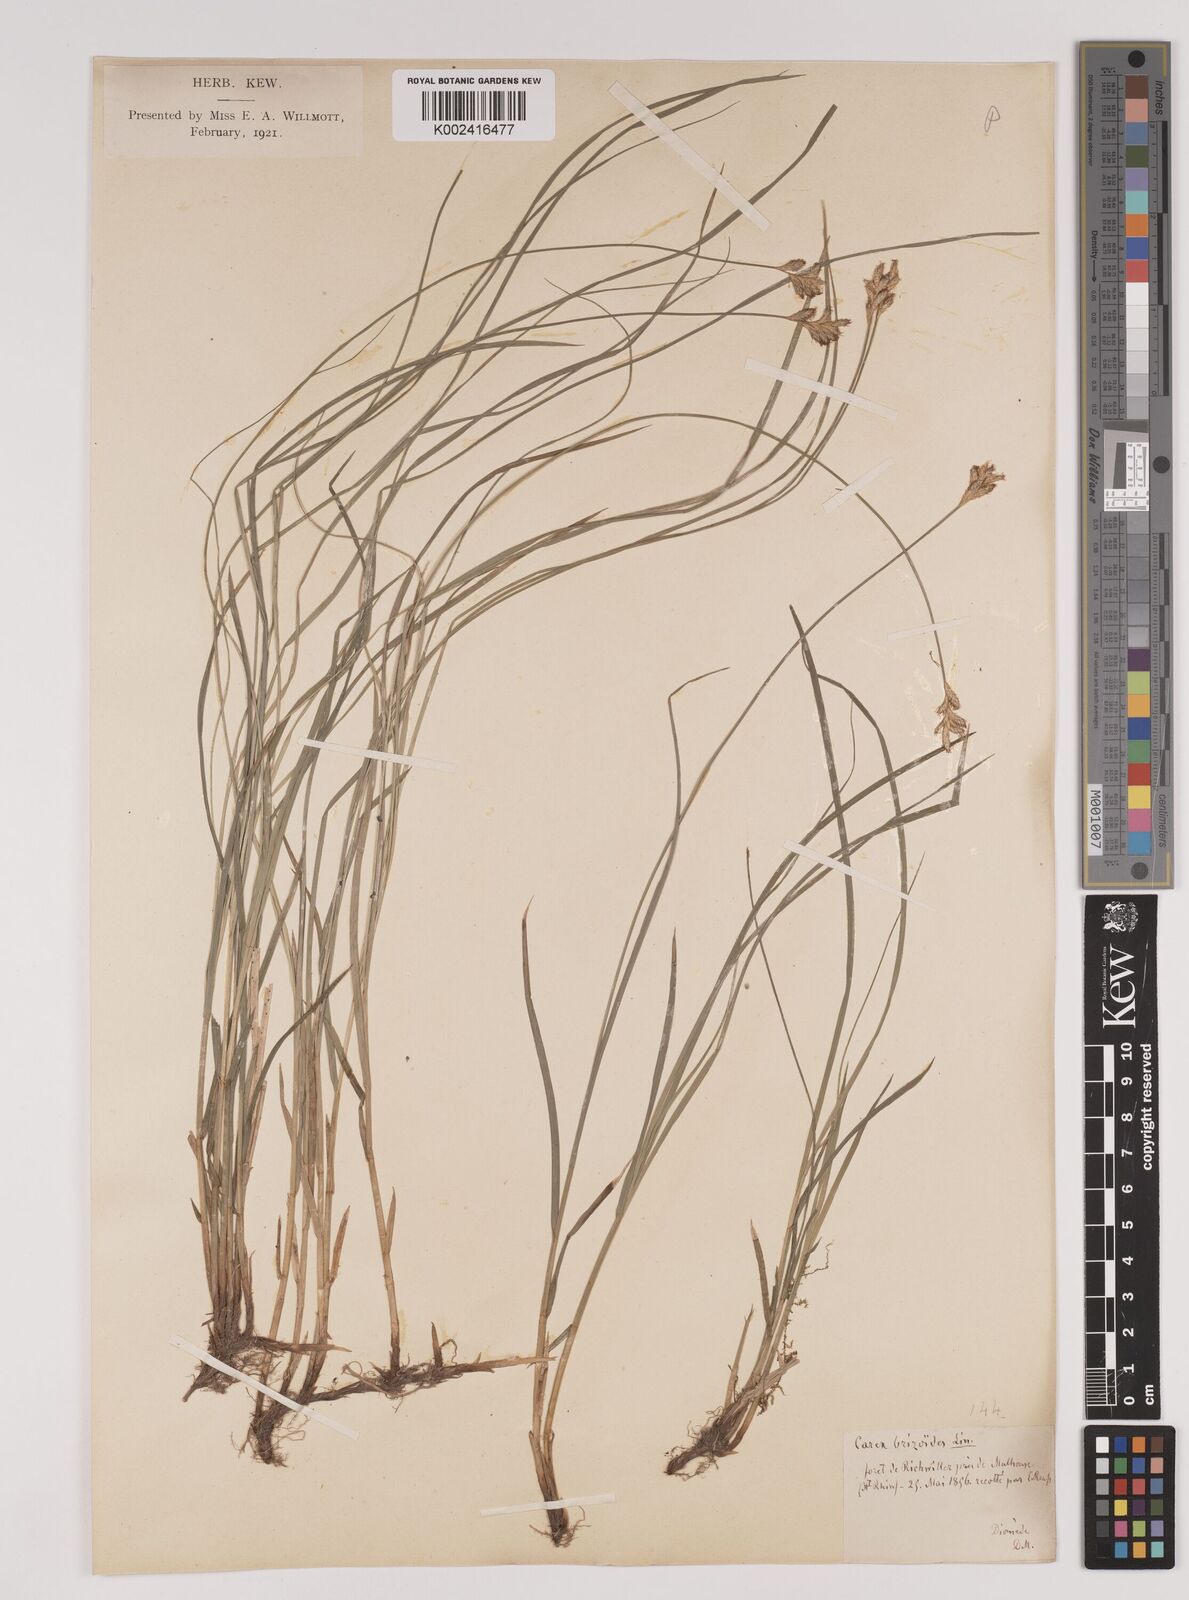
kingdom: Plantae
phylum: Tracheophyta
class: Liliopsida
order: Poales
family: Cyperaceae
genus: Carex
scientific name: Carex brizoides
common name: Quaking-grass sedge
